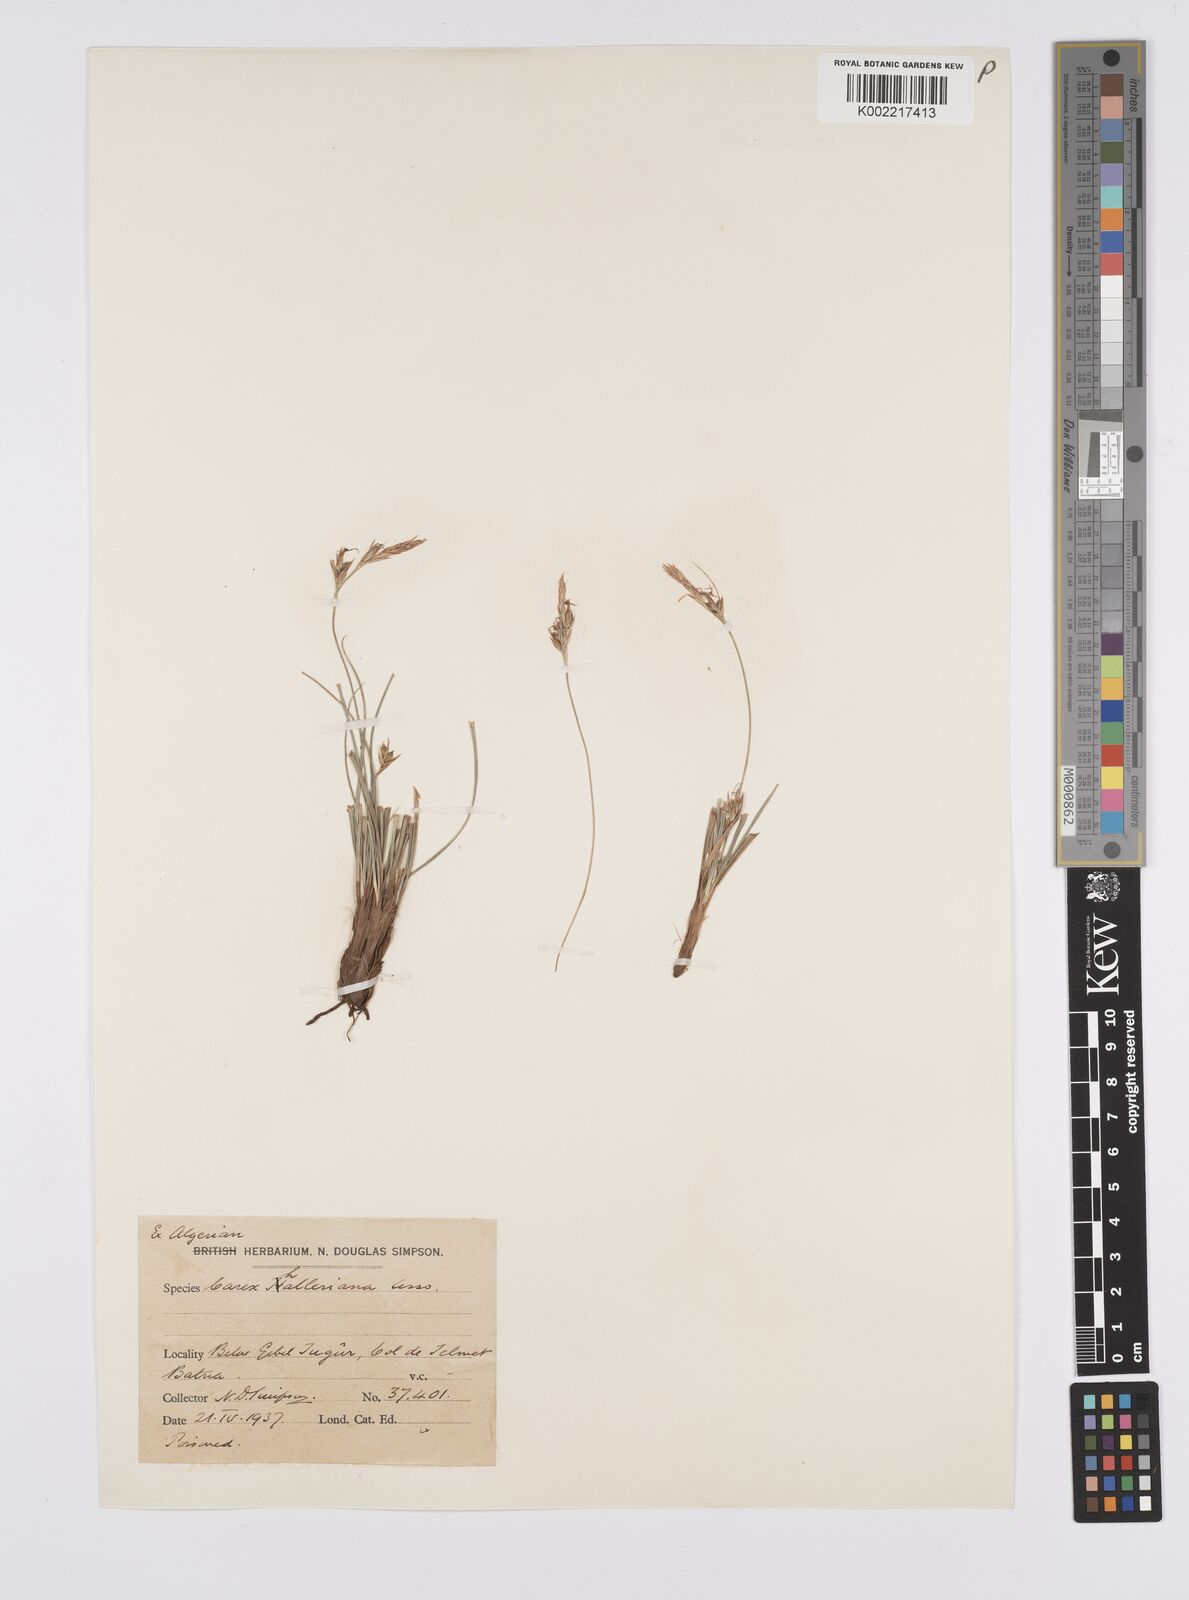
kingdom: Plantae
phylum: Tracheophyta
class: Liliopsida
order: Poales
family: Cyperaceae
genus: Carex
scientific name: Carex halleriana
